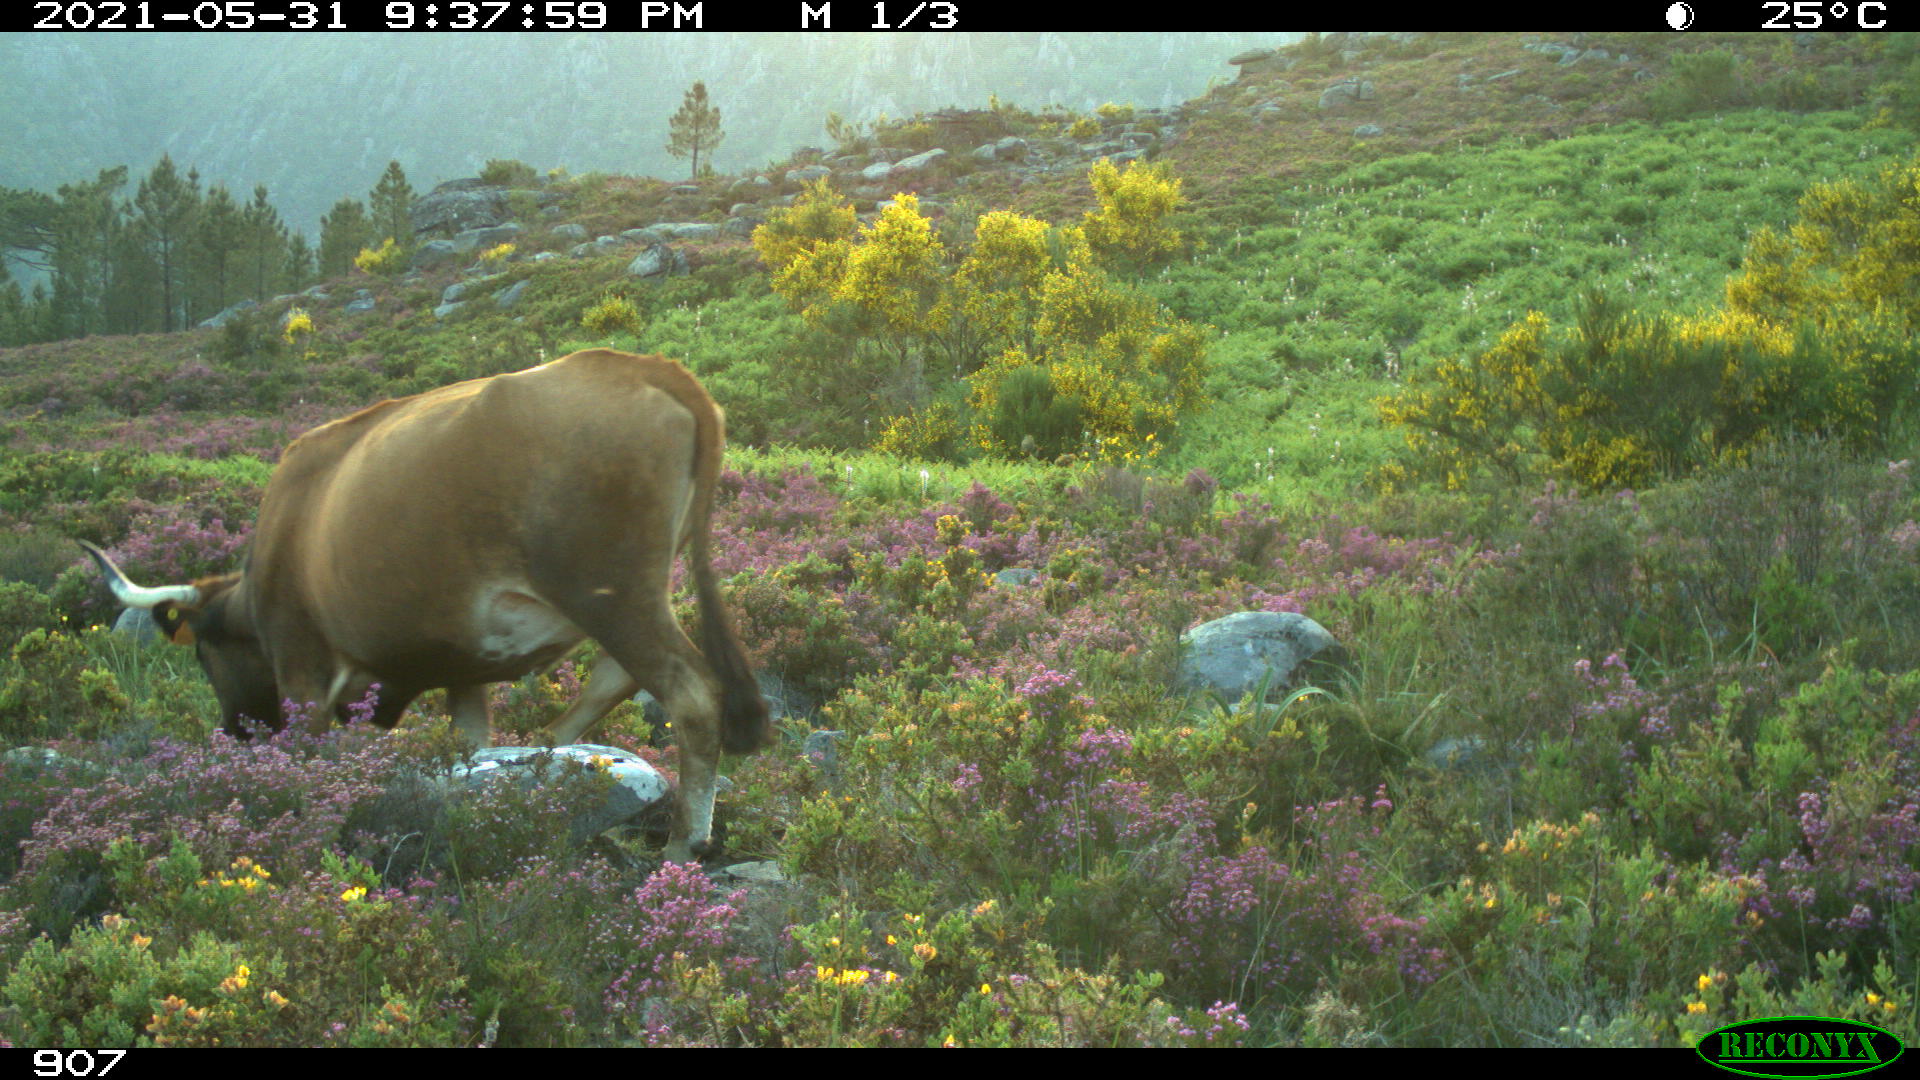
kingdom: Animalia
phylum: Chordata
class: Mammalia
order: Artiodactyla
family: Bovidae
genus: Bos
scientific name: Bos taurus
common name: Domesticated cattle
